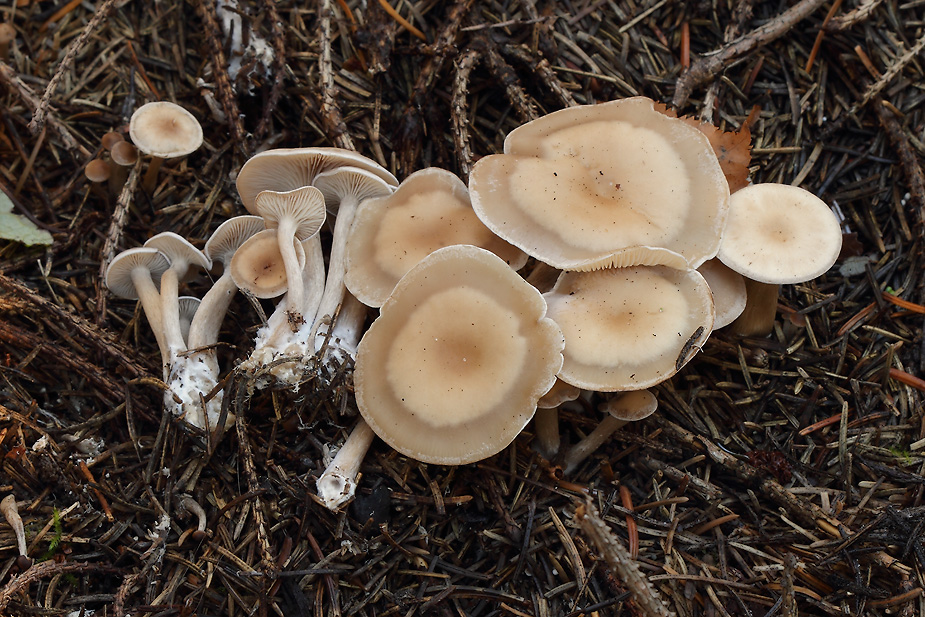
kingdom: Fungi
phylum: Basidiomycota
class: Agaricomycetes
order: Agaricales
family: Tricholomataceae
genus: Clitocybe
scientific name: Clitocybe fragrans
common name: vellugtende tragthat
